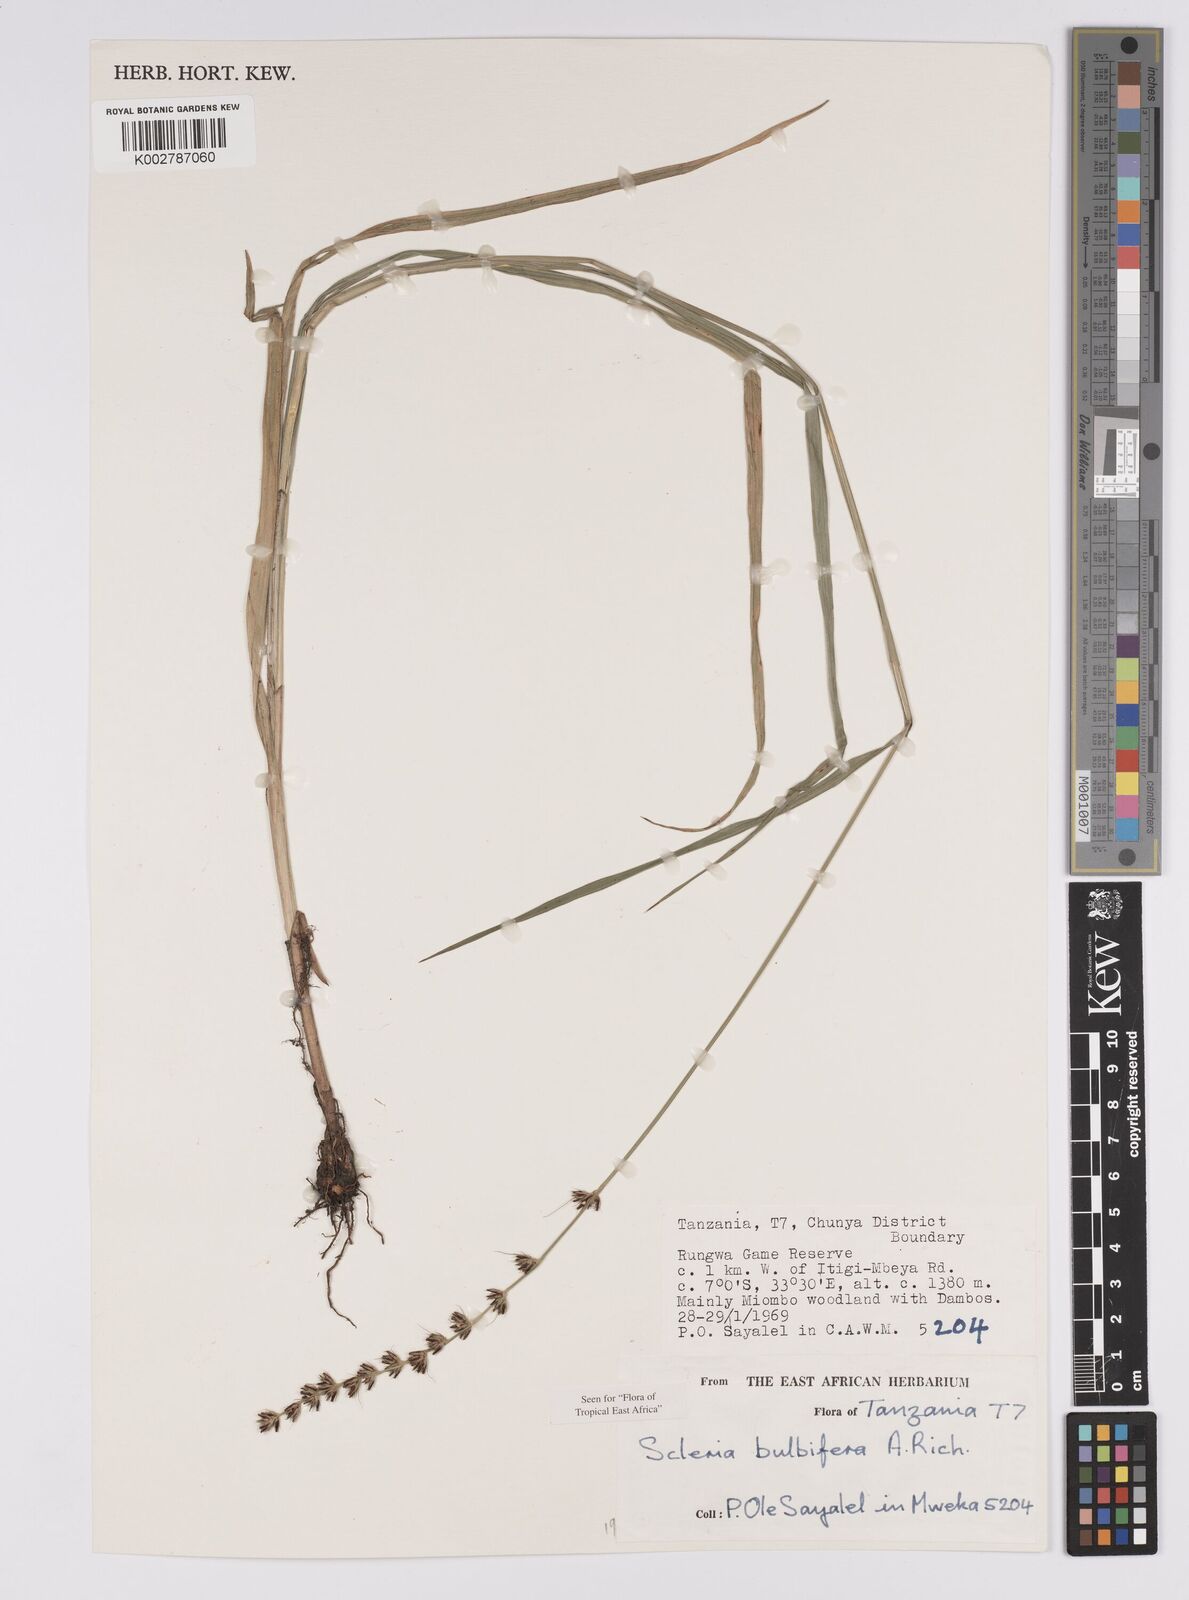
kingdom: Plantae
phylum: Tracheophyta
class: Liliopsida
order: Poales
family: Cyperaceae
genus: Scleria
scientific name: Scleria bulbifera
